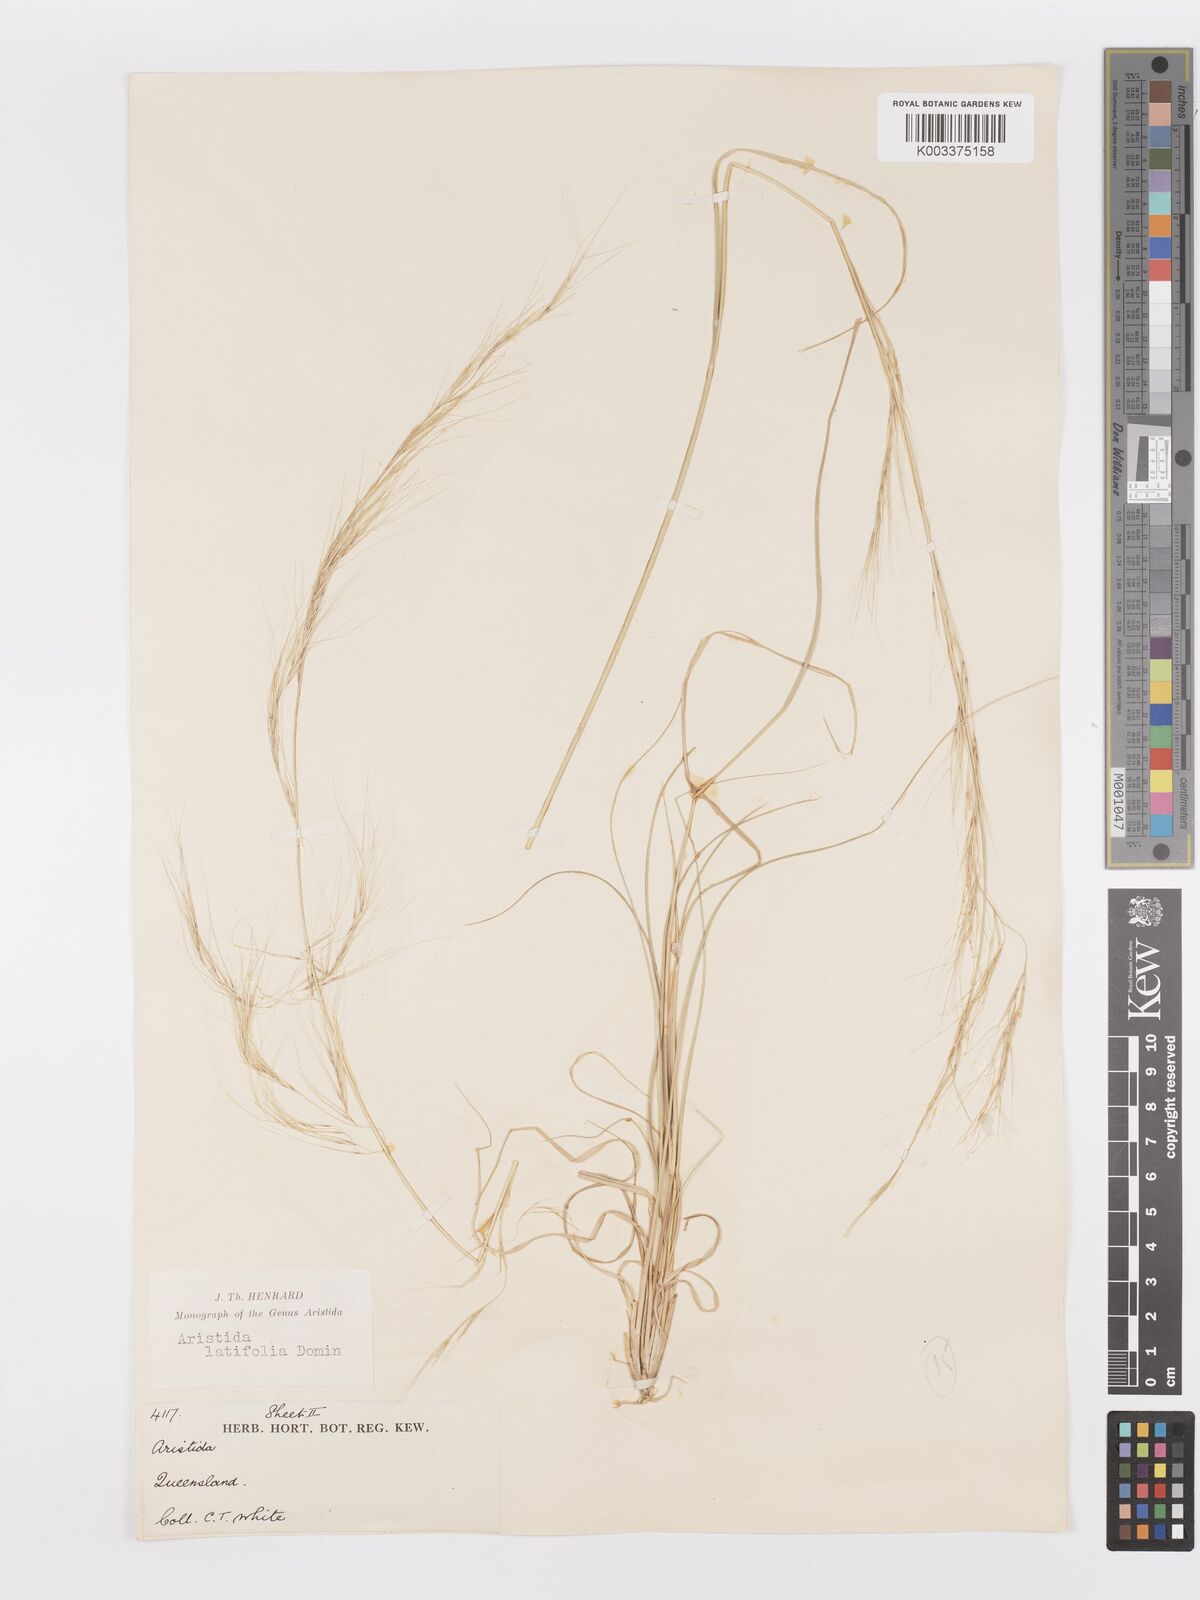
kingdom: Plantae
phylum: Tracheophyta
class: Liliopsida
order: Poales
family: Poaceae
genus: Aristida
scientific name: Aristida latifolia
